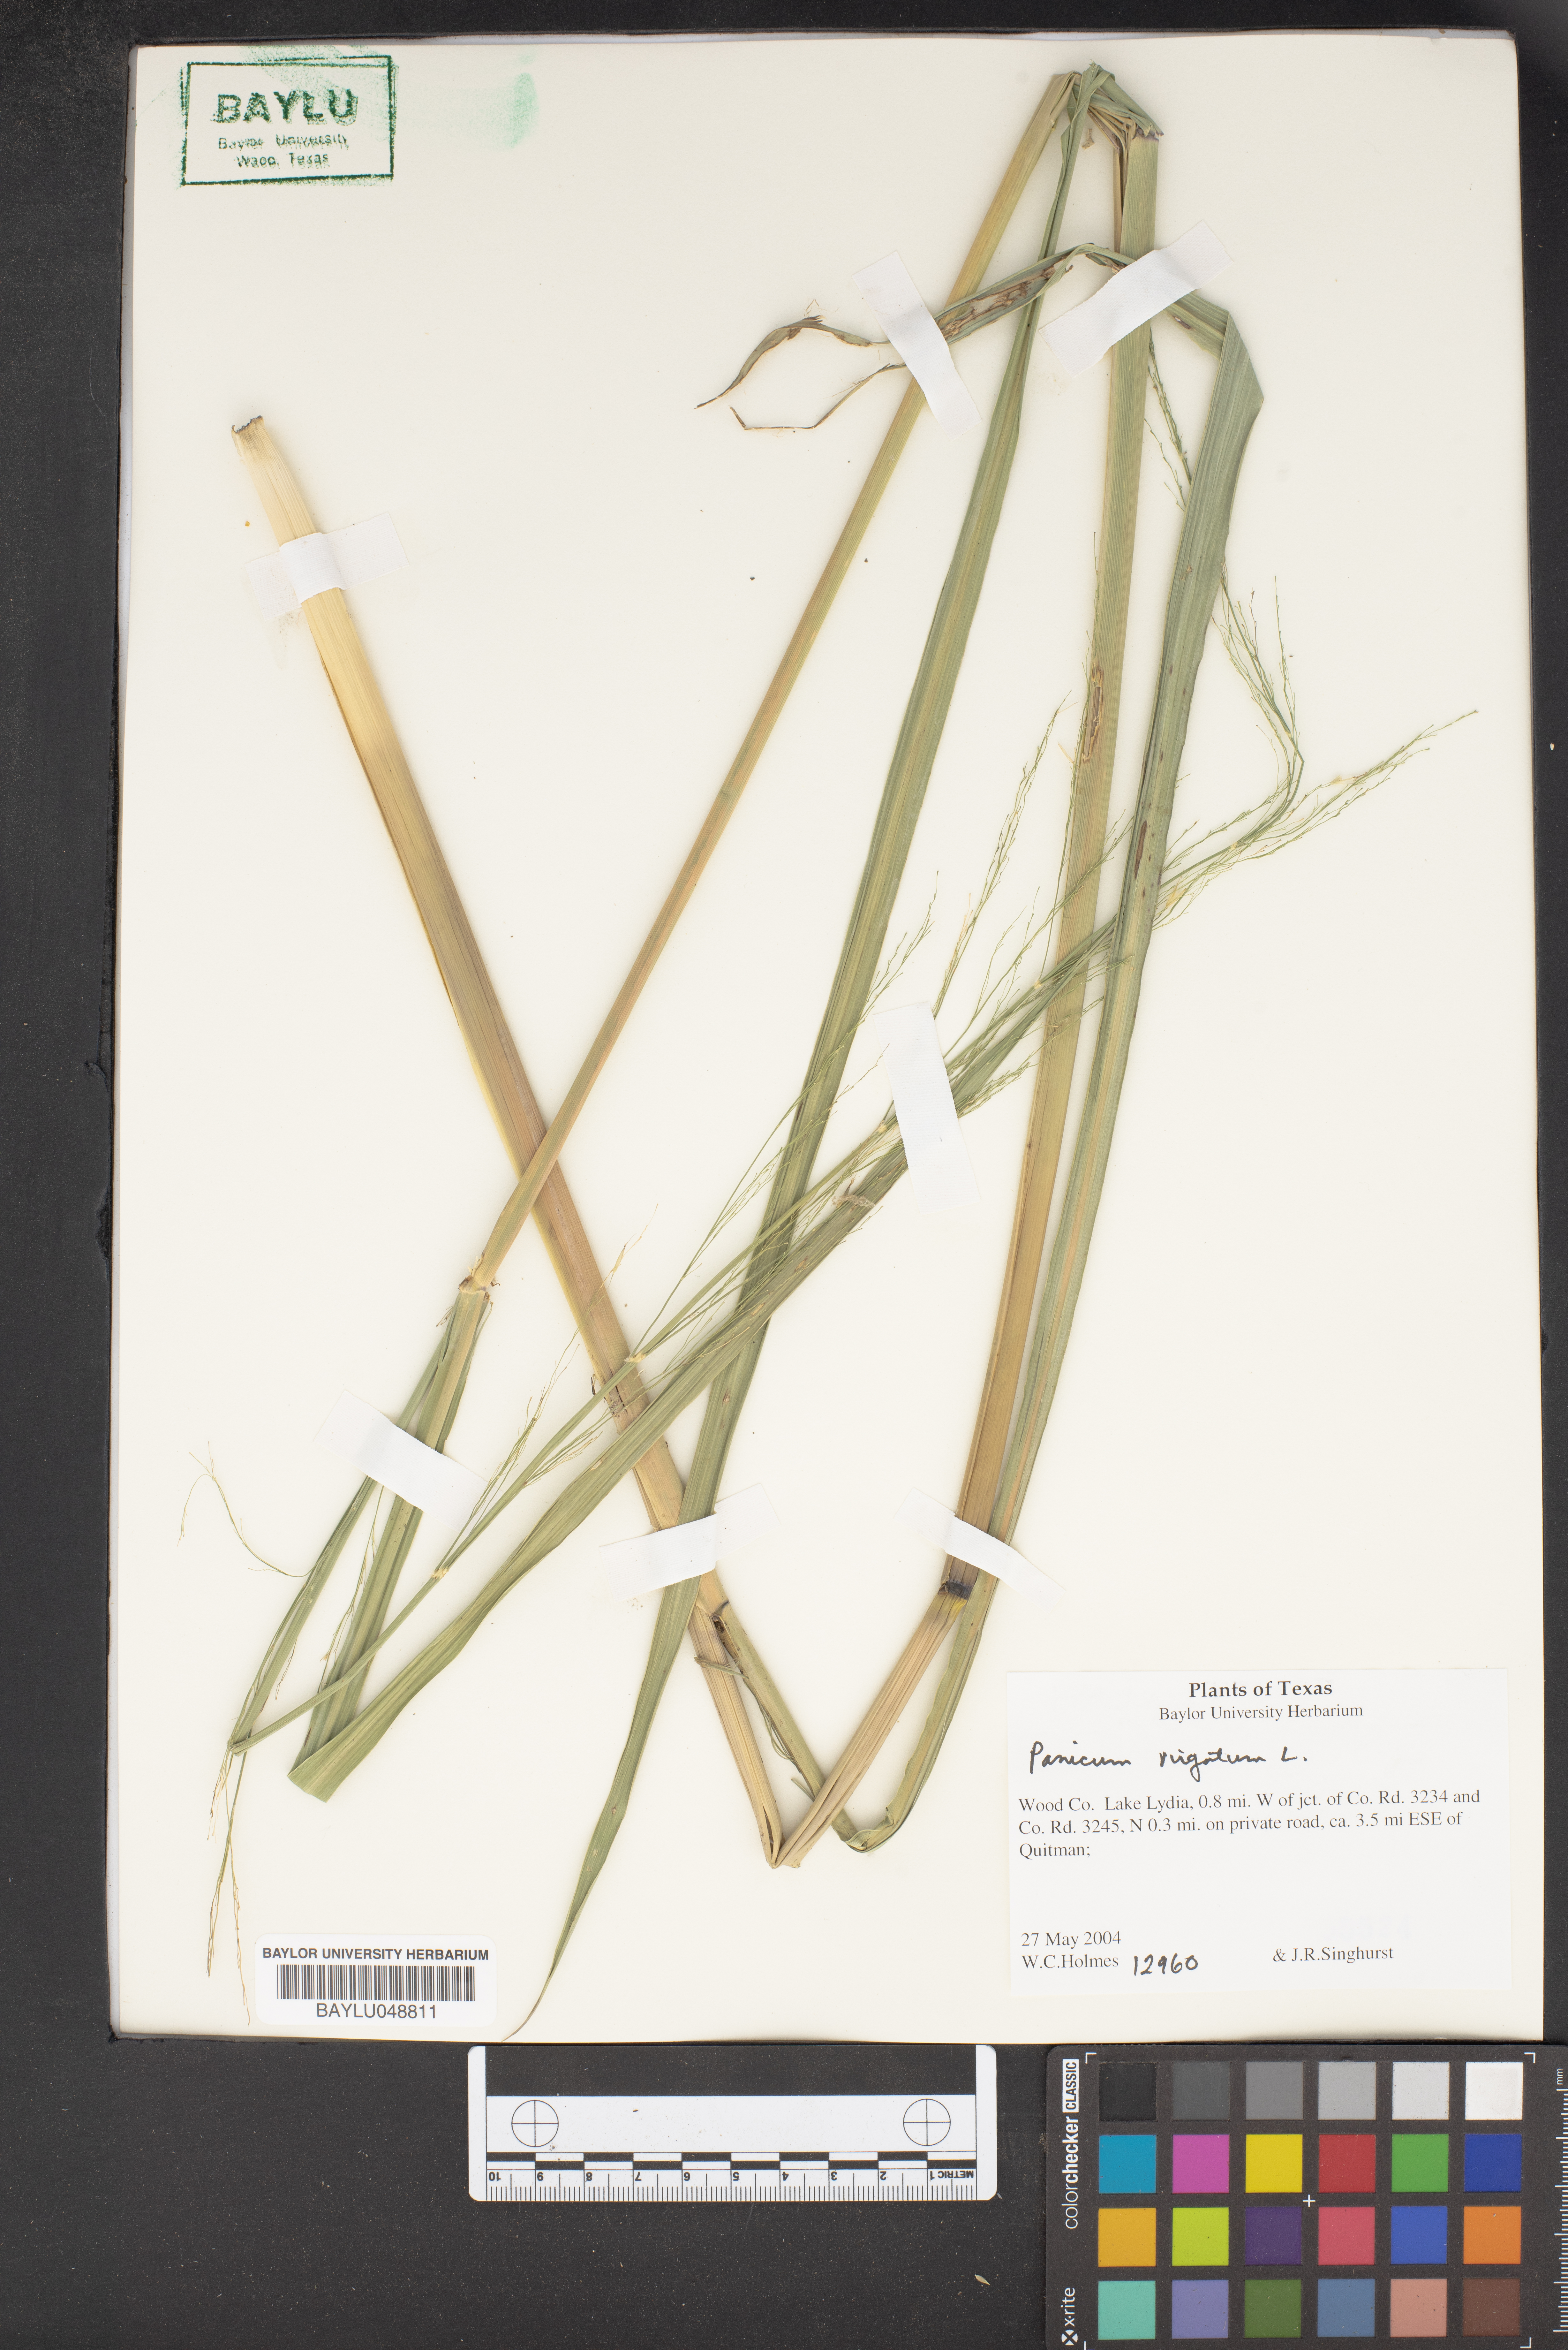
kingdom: Plantae
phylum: Tracheophyta
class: Liliopsida
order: Poales
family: Poaceae
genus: Panicum
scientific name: Panicum virgatum
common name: Switchgrass
